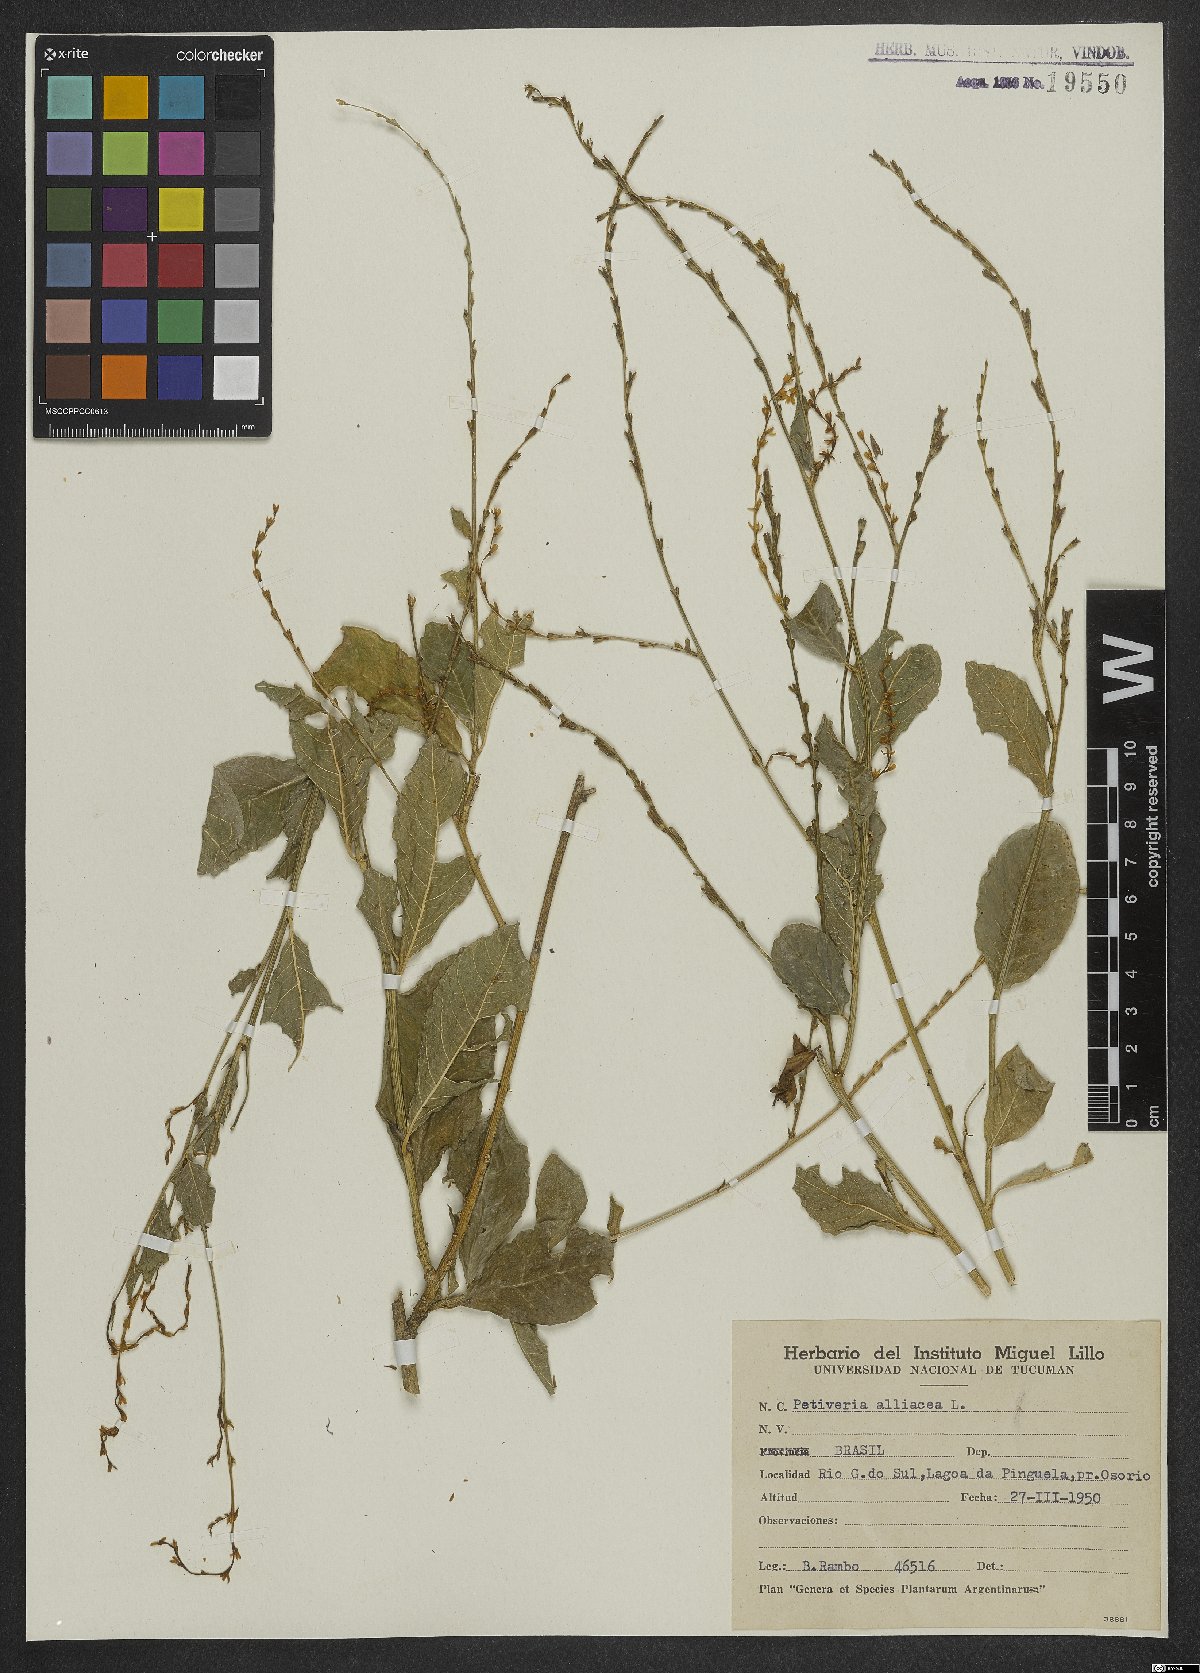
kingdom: Plantae
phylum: Tracheophyta
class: Magnoliopsida
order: Caryophyllales
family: Phytolaccaceae
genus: Petiveria
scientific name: Petiveria alliacea
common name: Garlicweed
